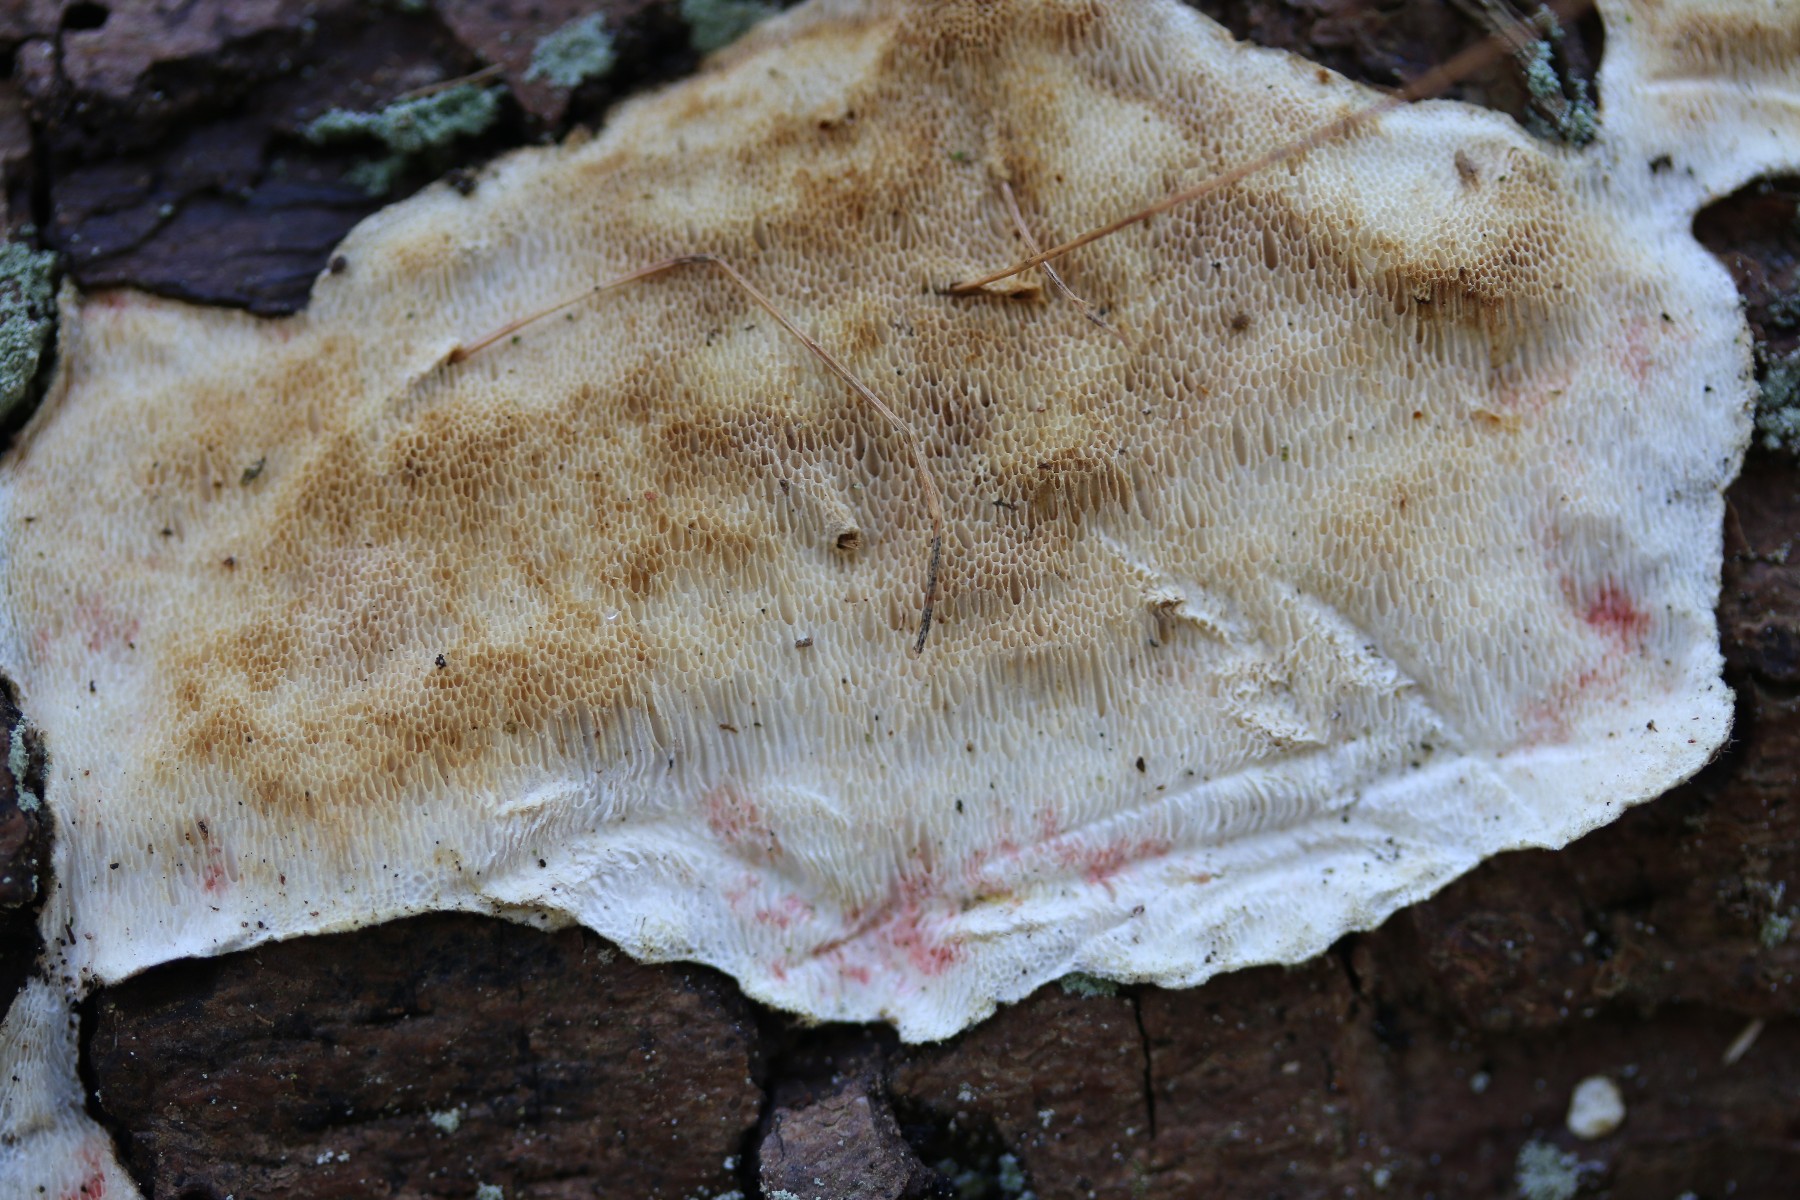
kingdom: Fungi
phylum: Ascomycota
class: Leotiomycetes
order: Helotiales
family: Hyphodiscaceae
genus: Hyphodiscus
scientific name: Hyphodiscus hymeniophilus
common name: snyltende sirskive
